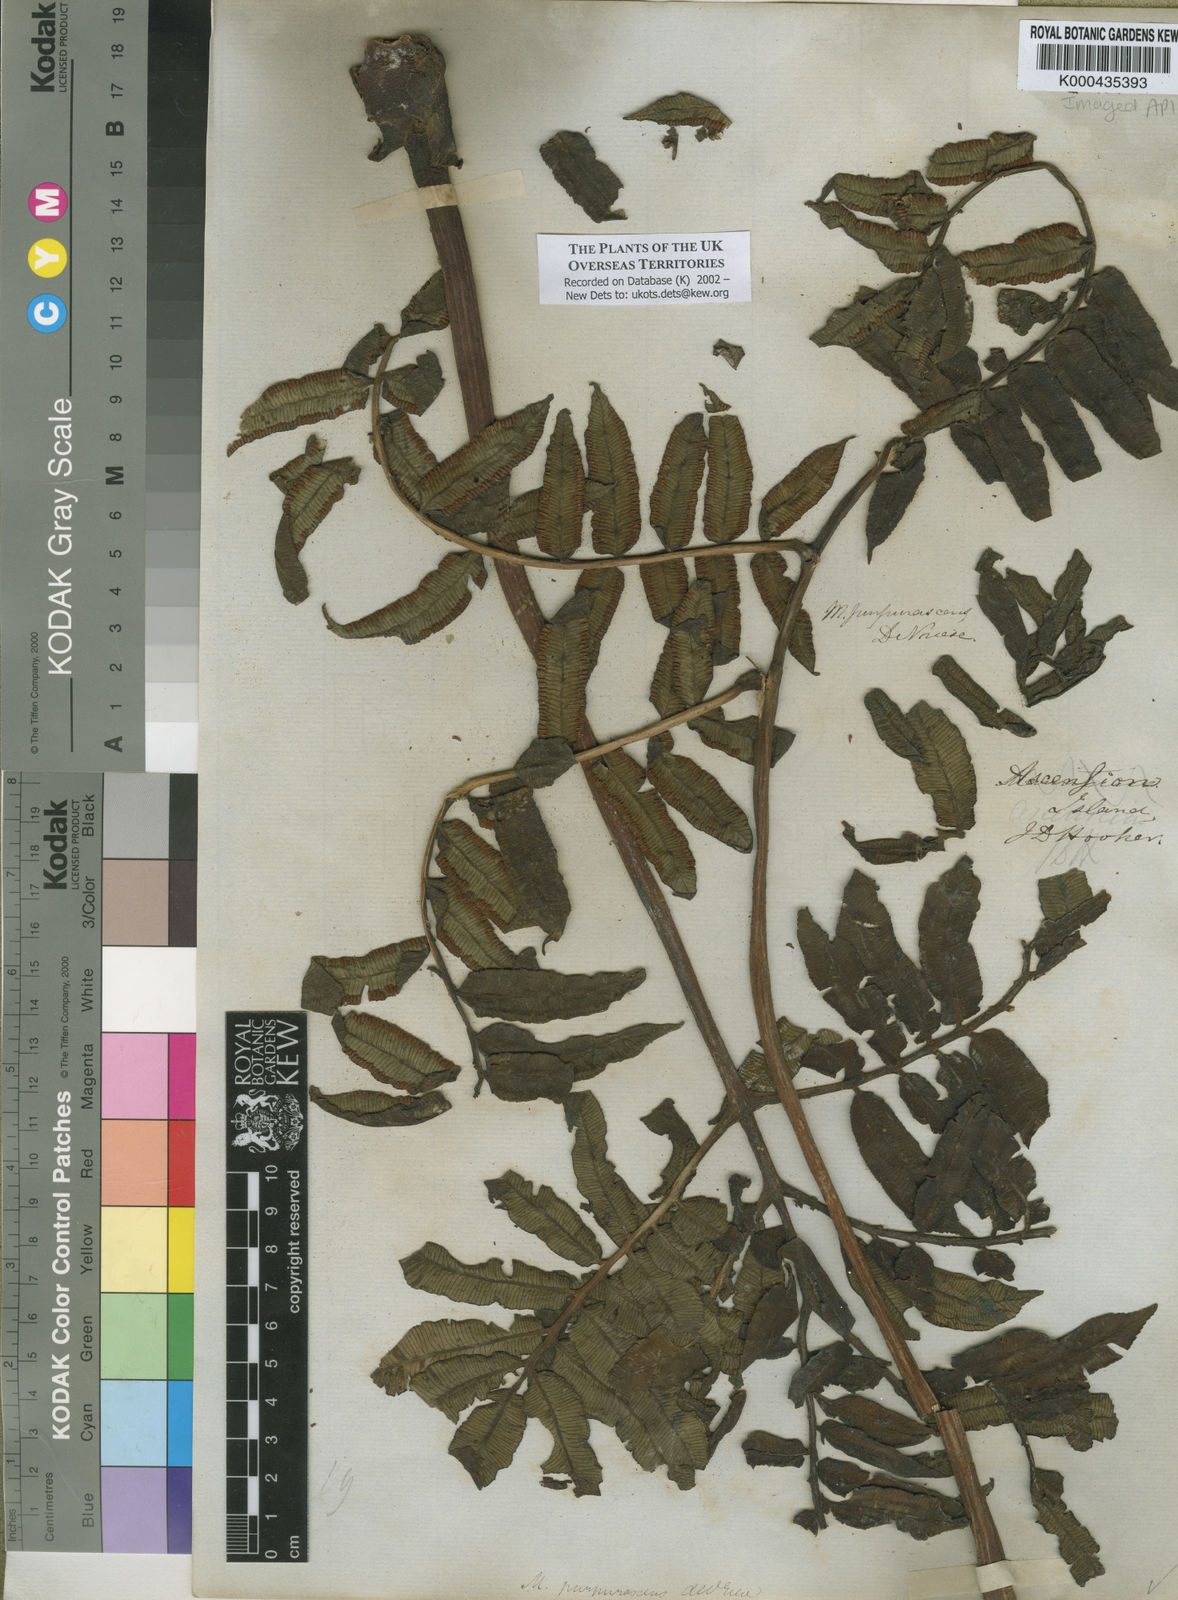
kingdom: Plantae
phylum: Tracheophyta
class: Polypodiopsida
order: Marattiales
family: Marattiaceae
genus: Ptisana
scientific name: Ptisana purpurascens
